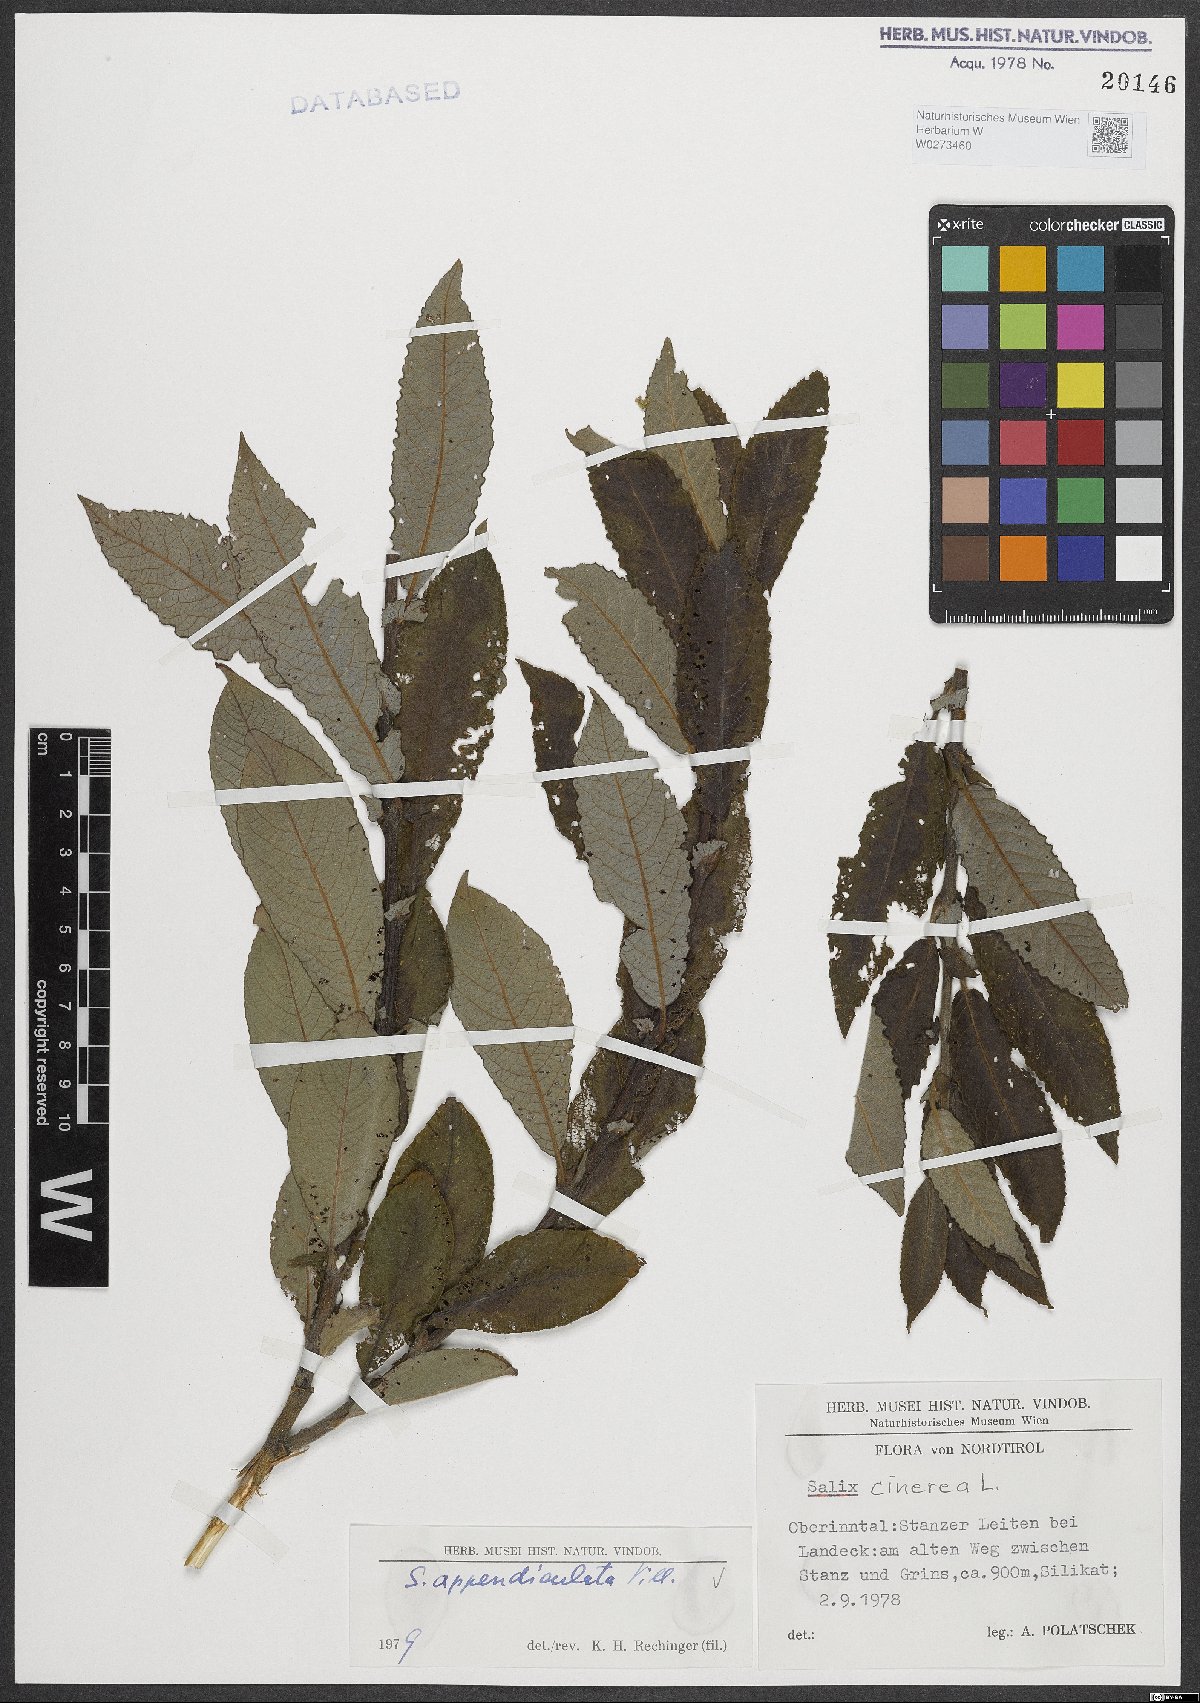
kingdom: Plantae
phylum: Tracheophyta
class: Magnoliopsida
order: Malpighiales
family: Salicaceae
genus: Salix
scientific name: Salix appendiculata
